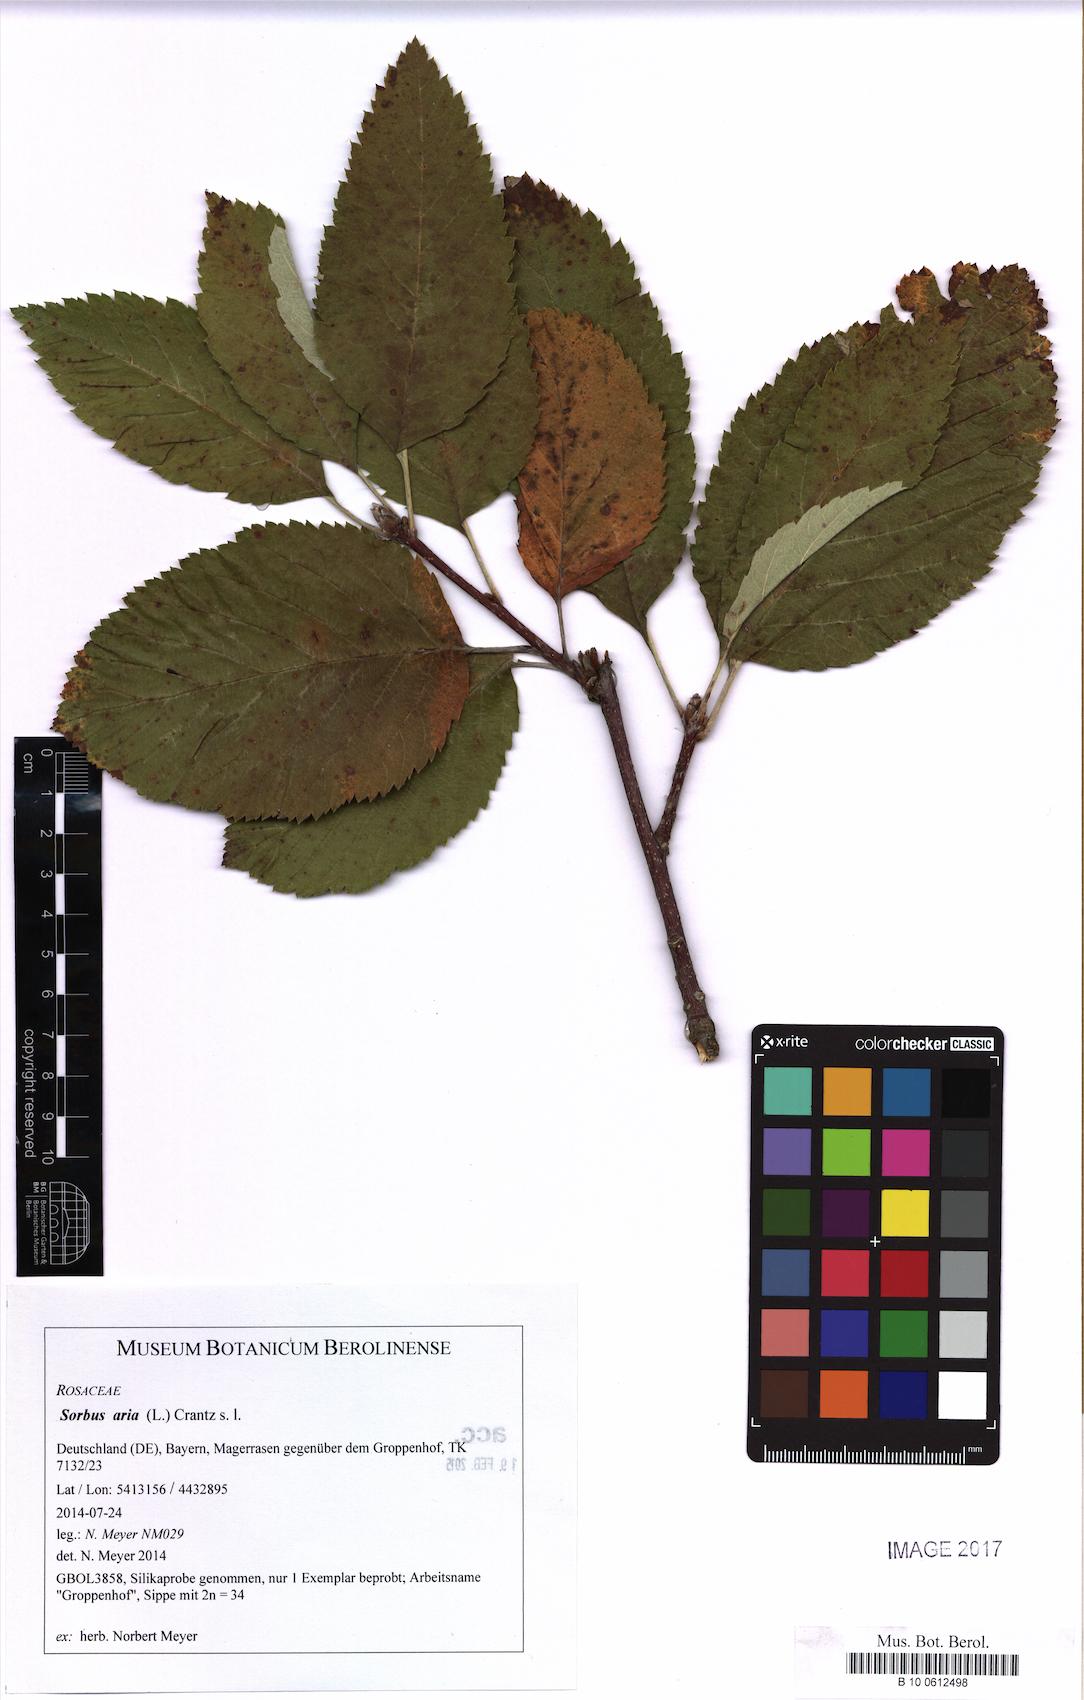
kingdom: Plantae
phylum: Tracheophyta
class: Magnoliopsida
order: Rosales
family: Rosaceae
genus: Aria
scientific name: Aria edulis
